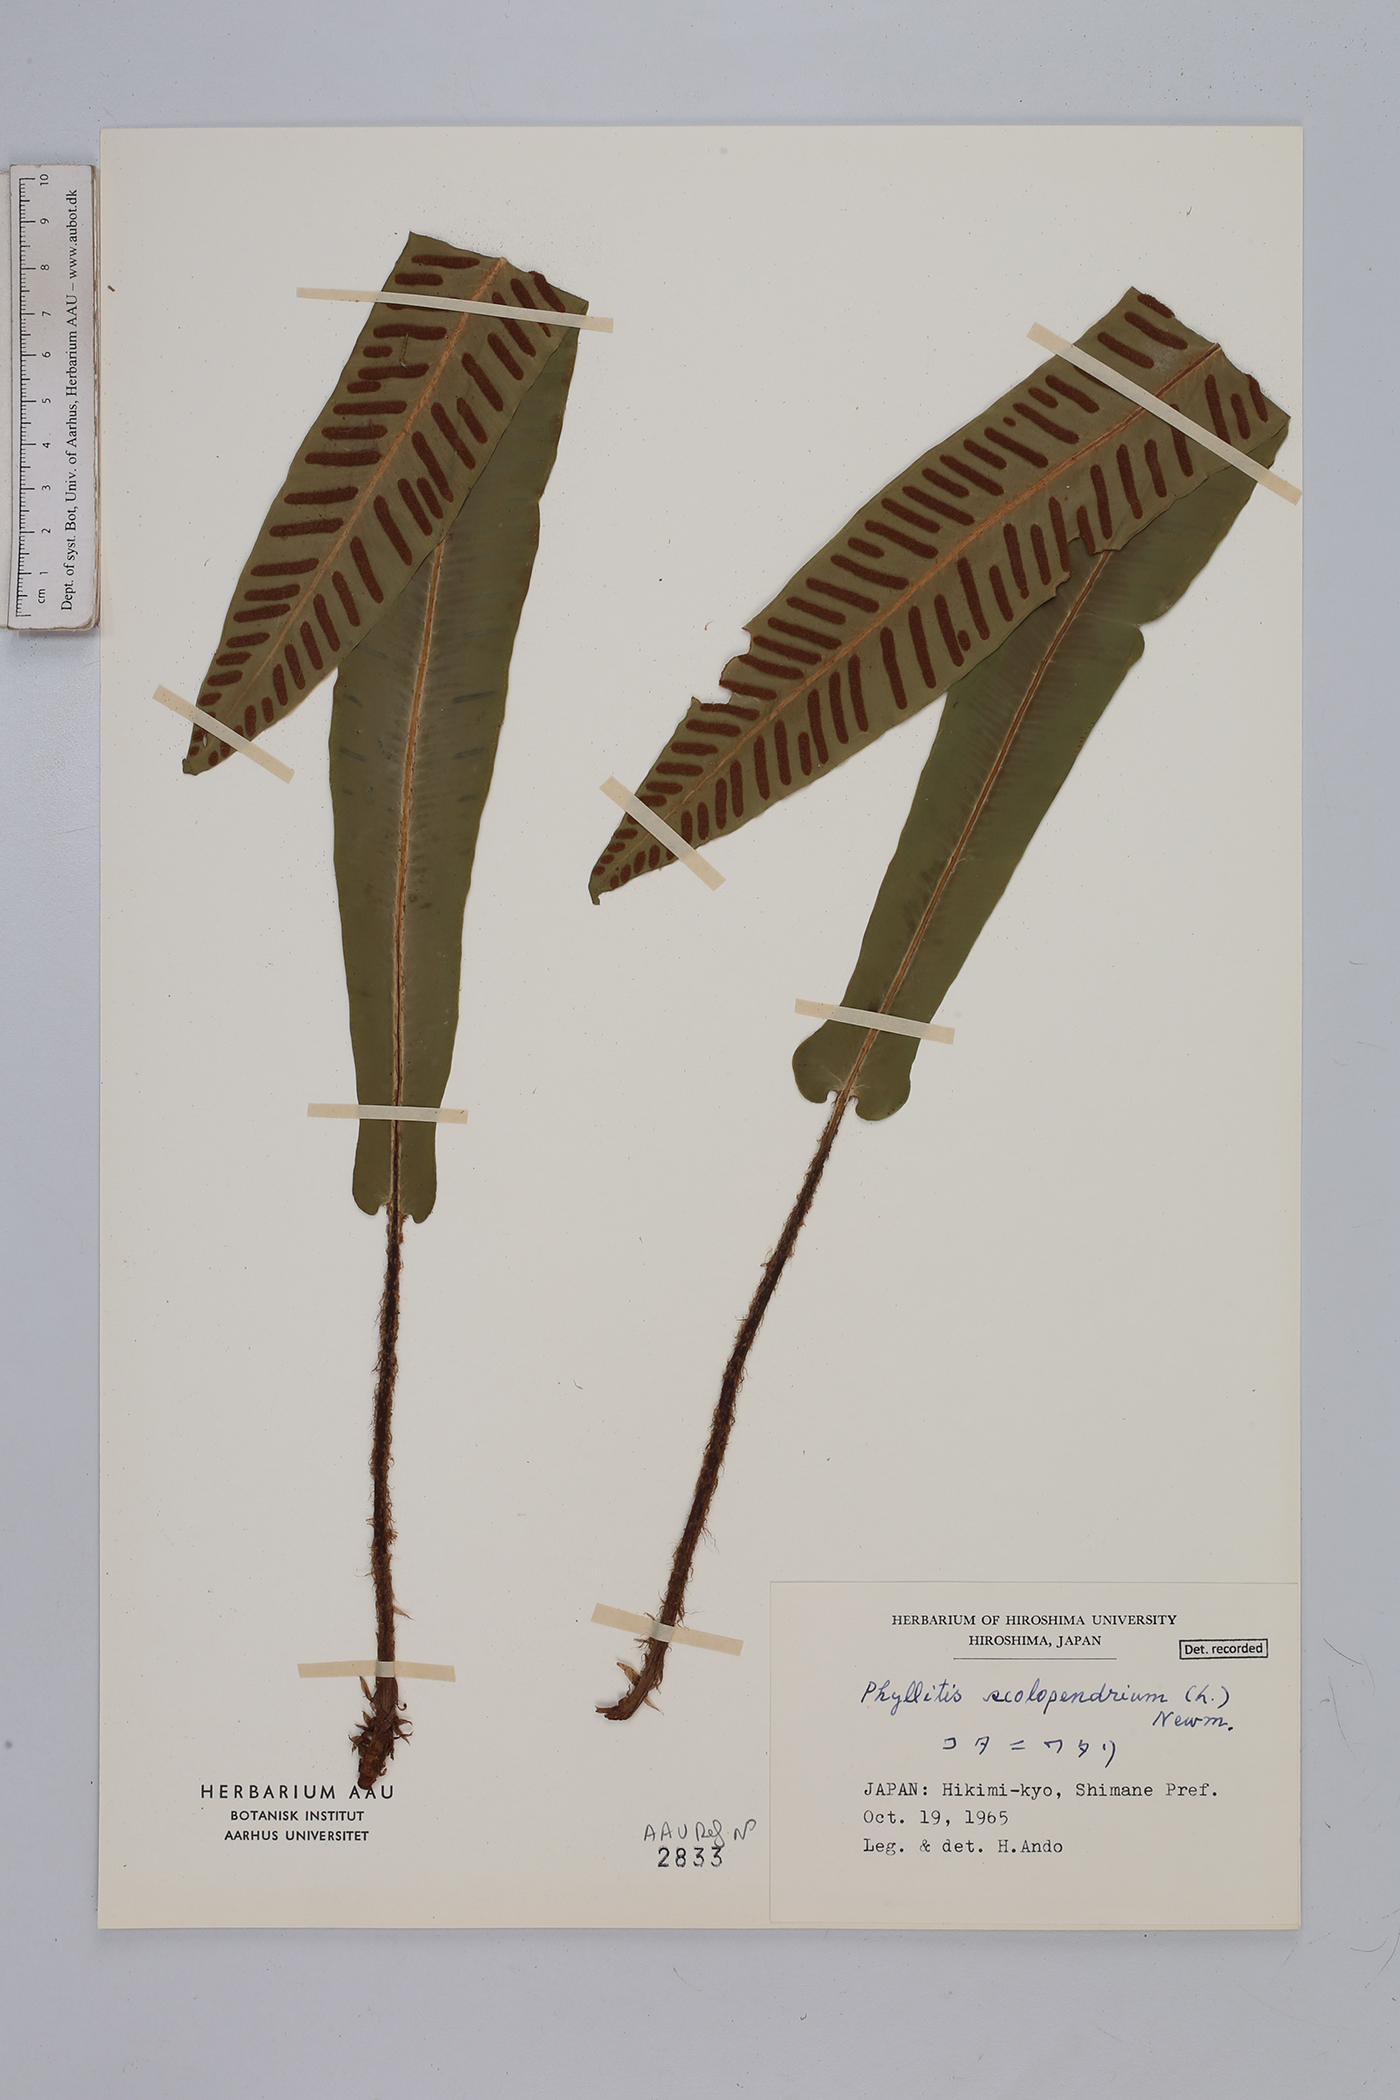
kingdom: Plantae
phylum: Tracheophyta
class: Polypodiopsida
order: Polypodiales
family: Aspleniaceae
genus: Asplenium
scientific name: Asplenium scolopendrium
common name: Hart's-tongue fern
